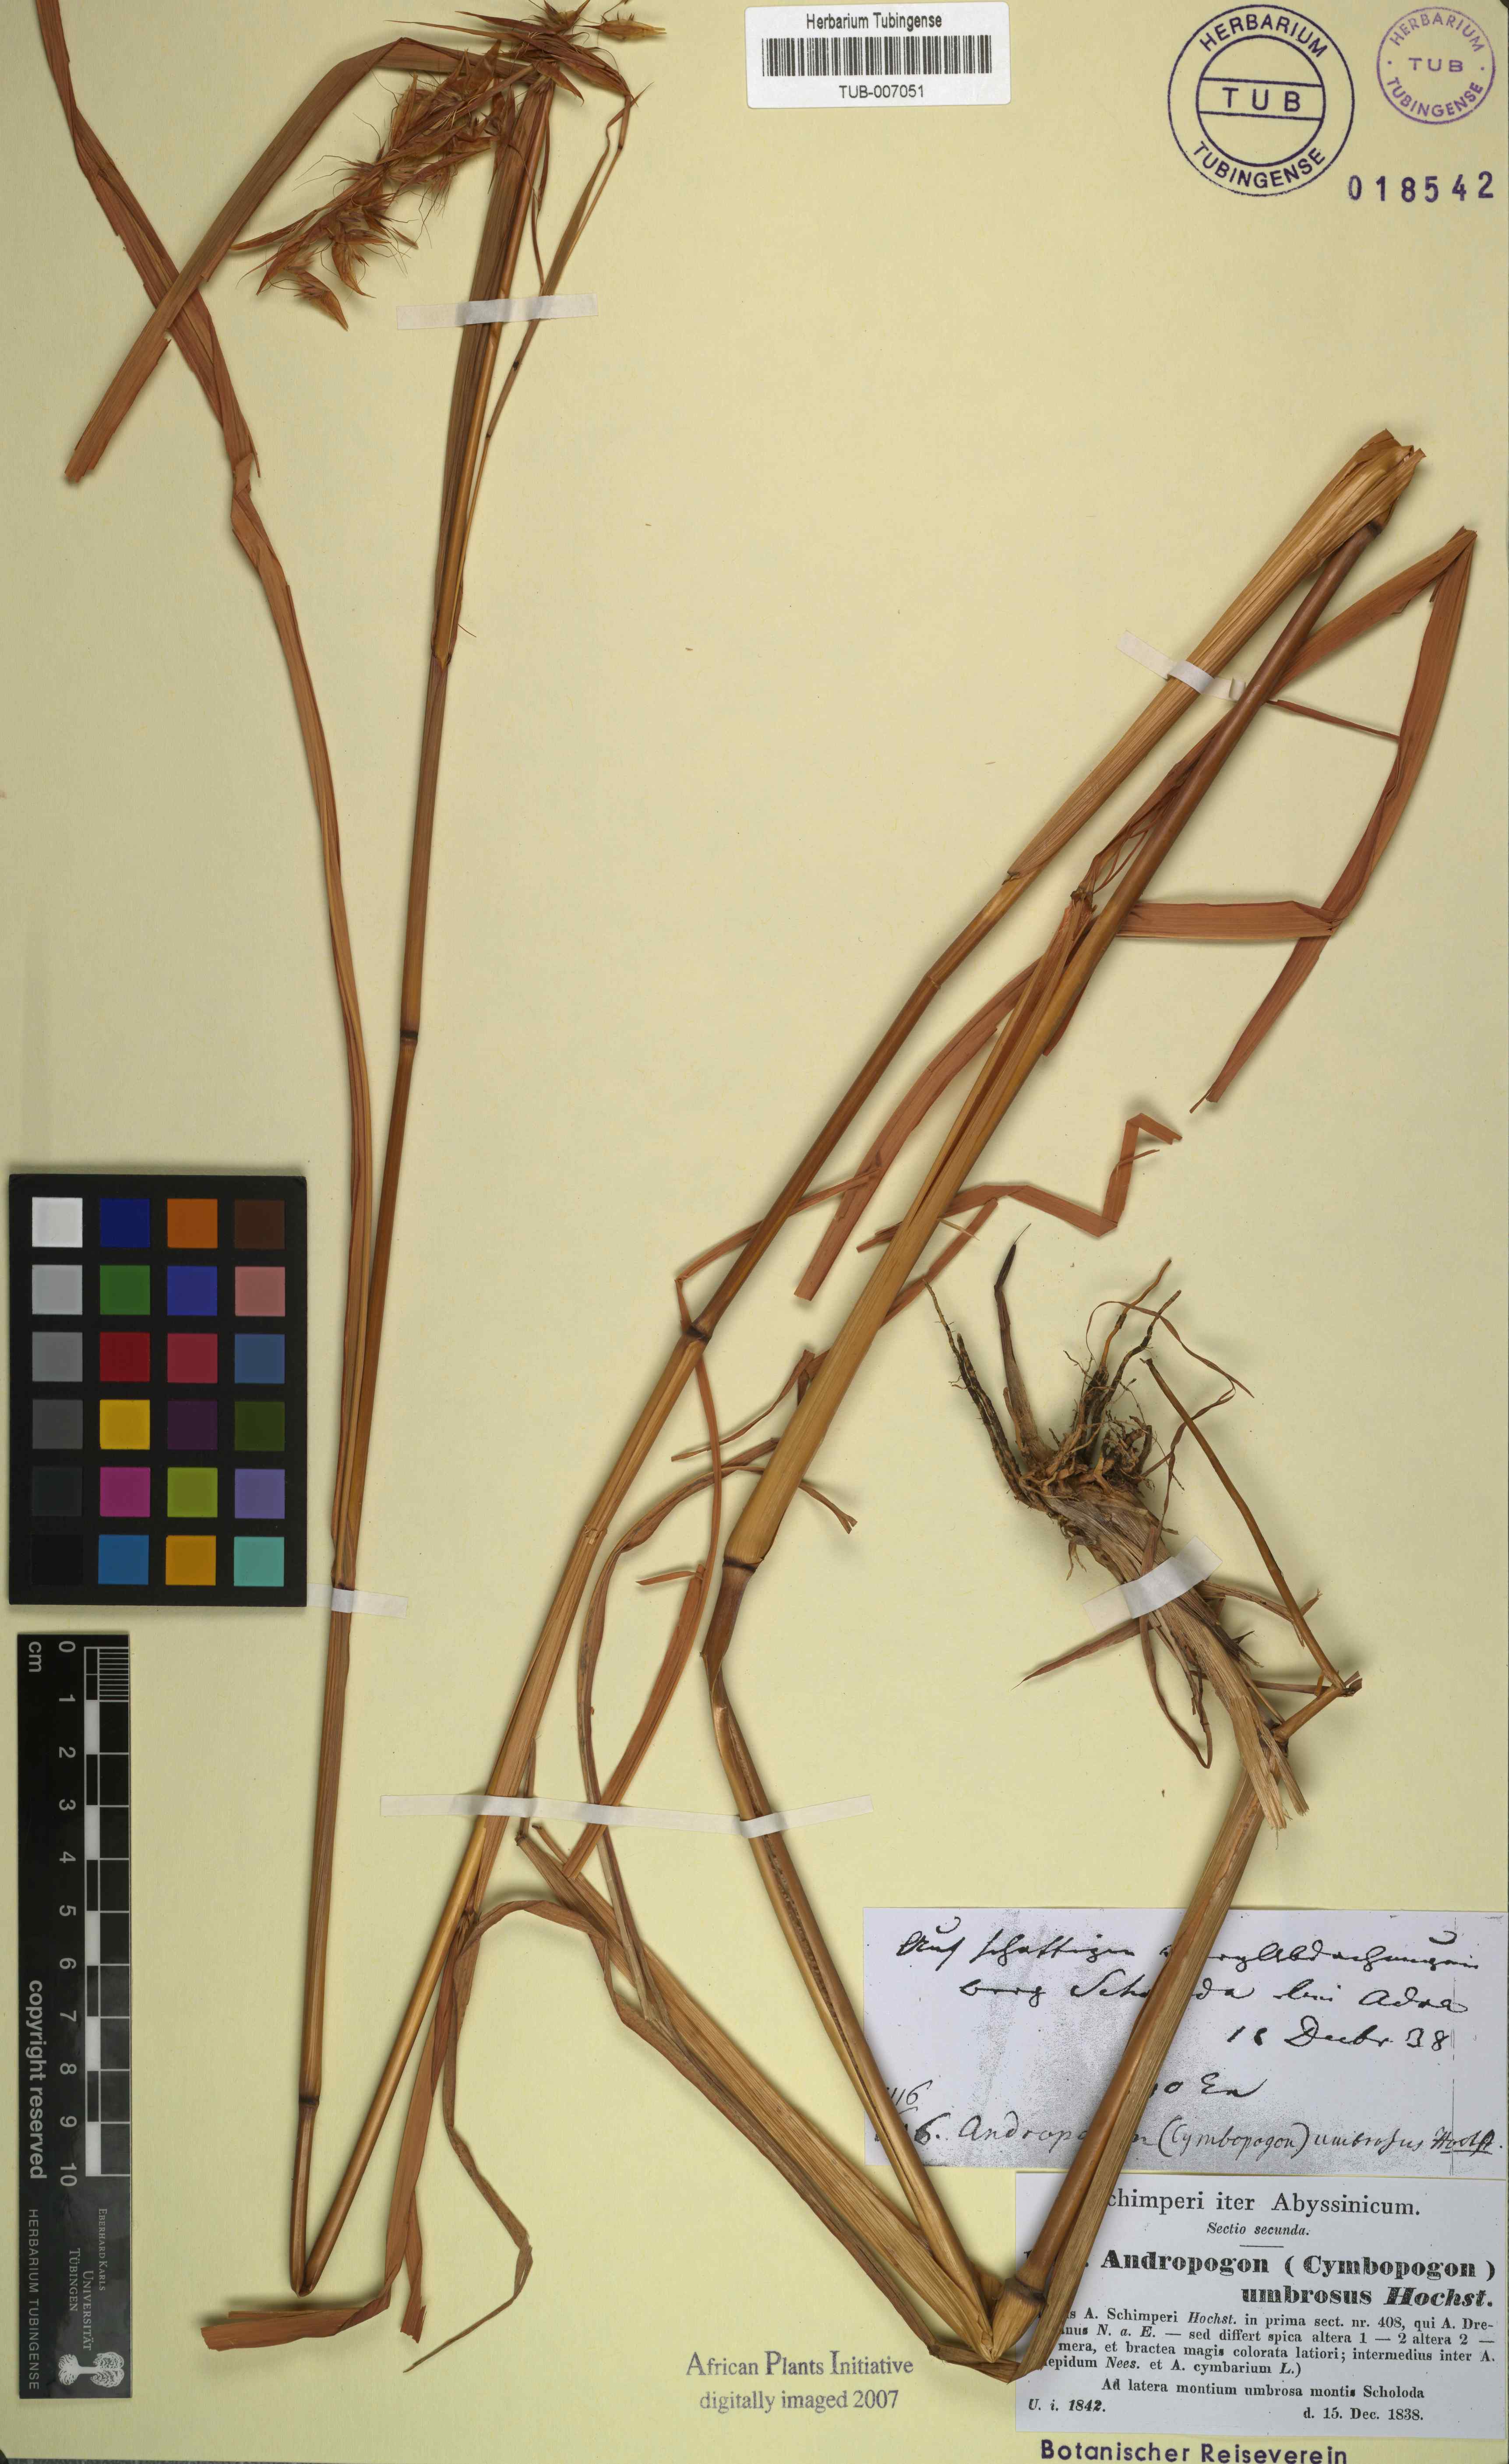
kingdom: Plantae
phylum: Tracheophyta
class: Liliopsida
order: Poales
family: Poaceae
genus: Hyparrhenia
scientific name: Hyparrhenia cymbaria
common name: Boat thatching grass
